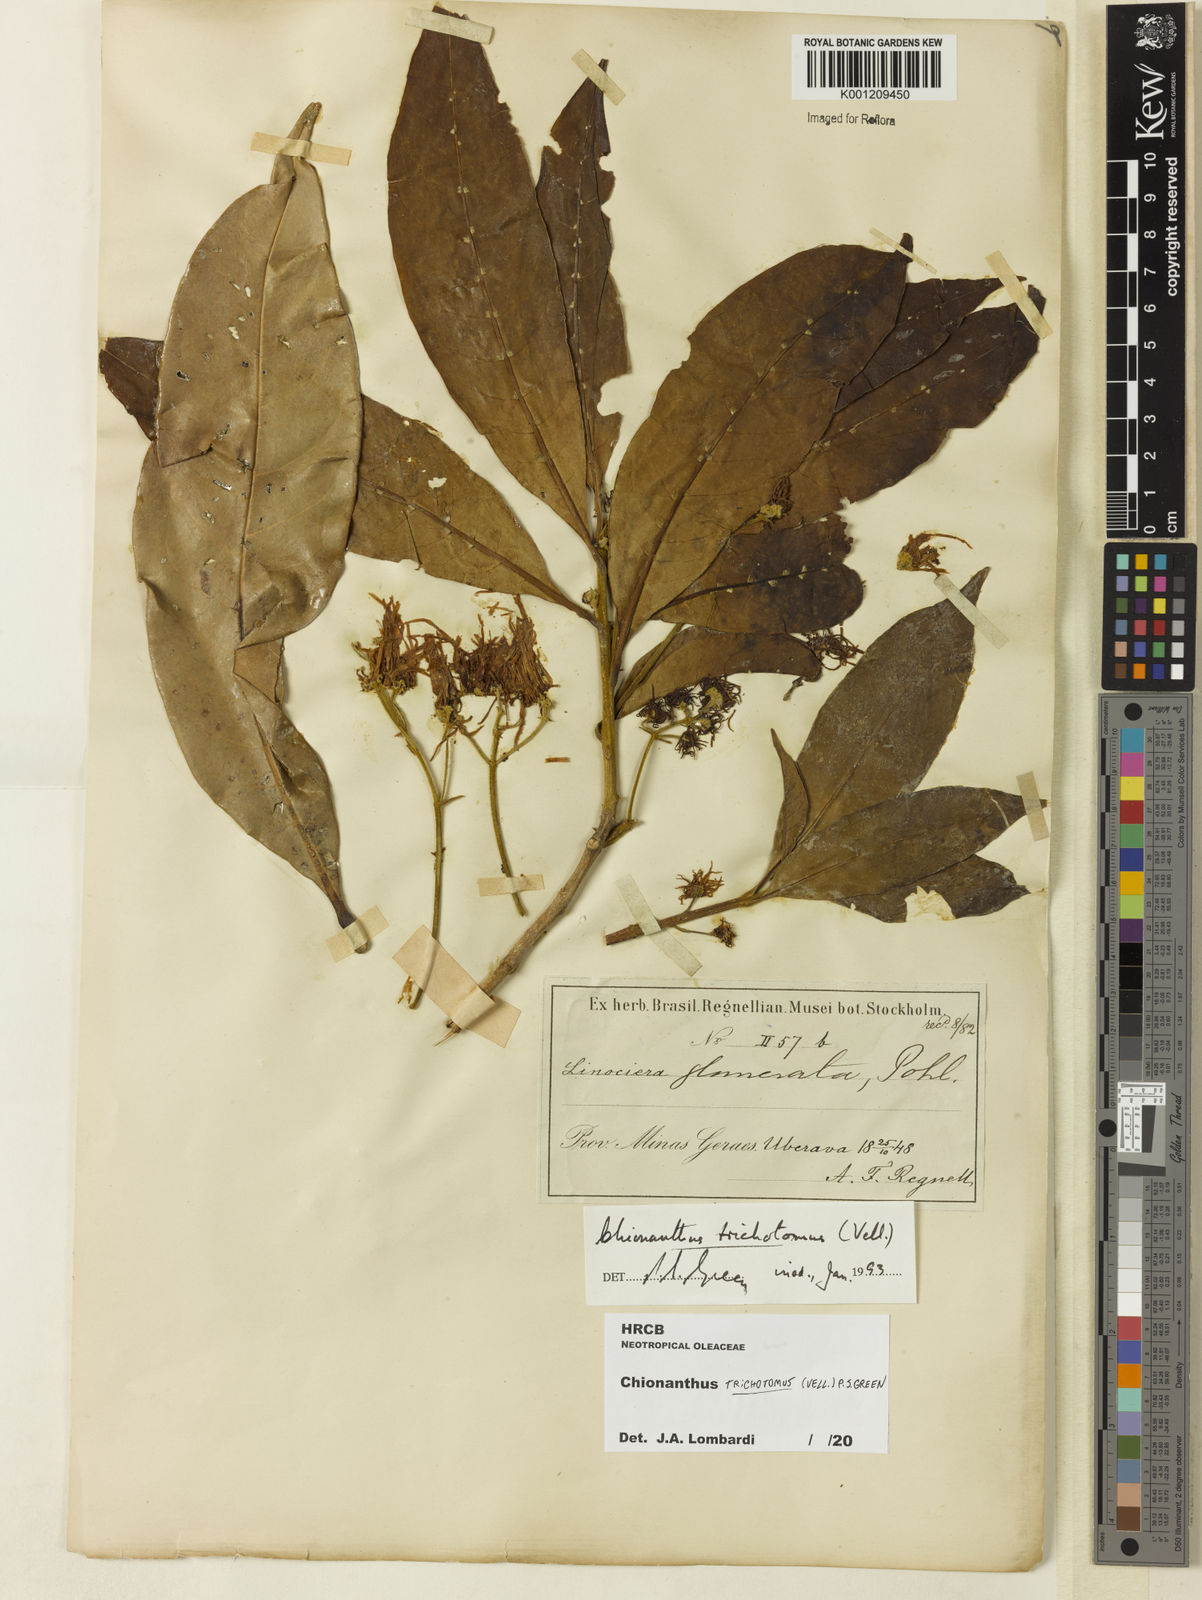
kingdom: Plantae
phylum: Tracheophyta
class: Magnoliopsida
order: Lamiales
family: Oleaceae
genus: Chionanthus
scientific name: Chionanthus trichotomus
